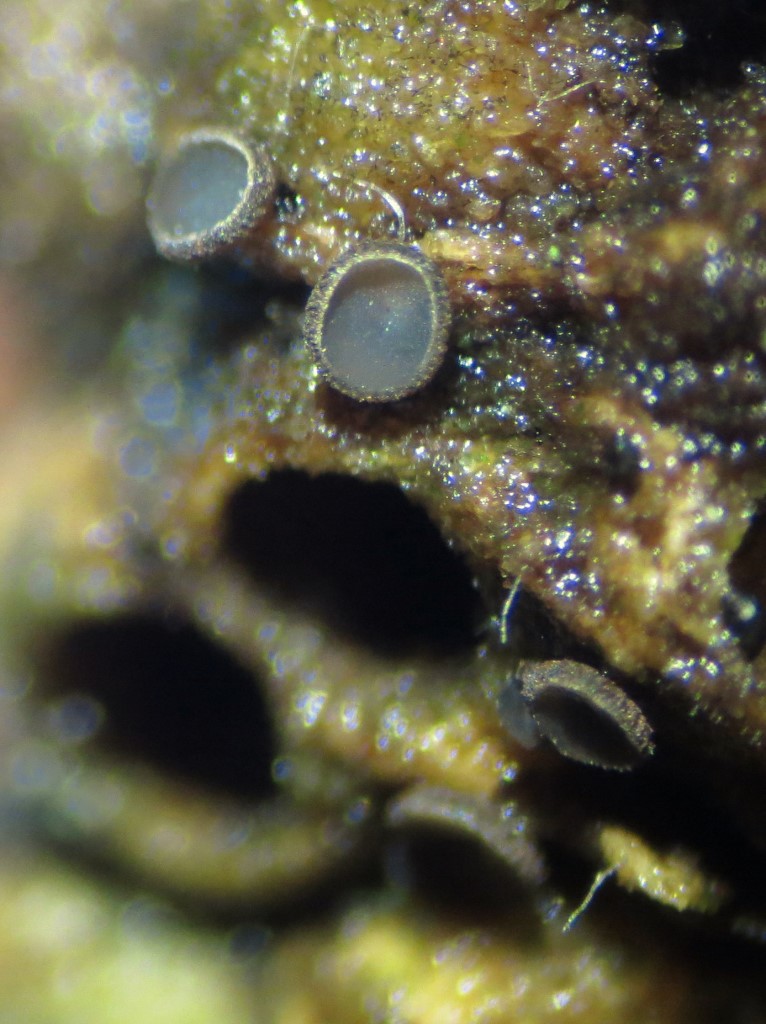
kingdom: Fungi
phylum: Ascomycota
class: Leotiomycetes
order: Helotiales
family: Mollisiaceae
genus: Mollisia
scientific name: Mollisia ligni
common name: ved-gråskive
